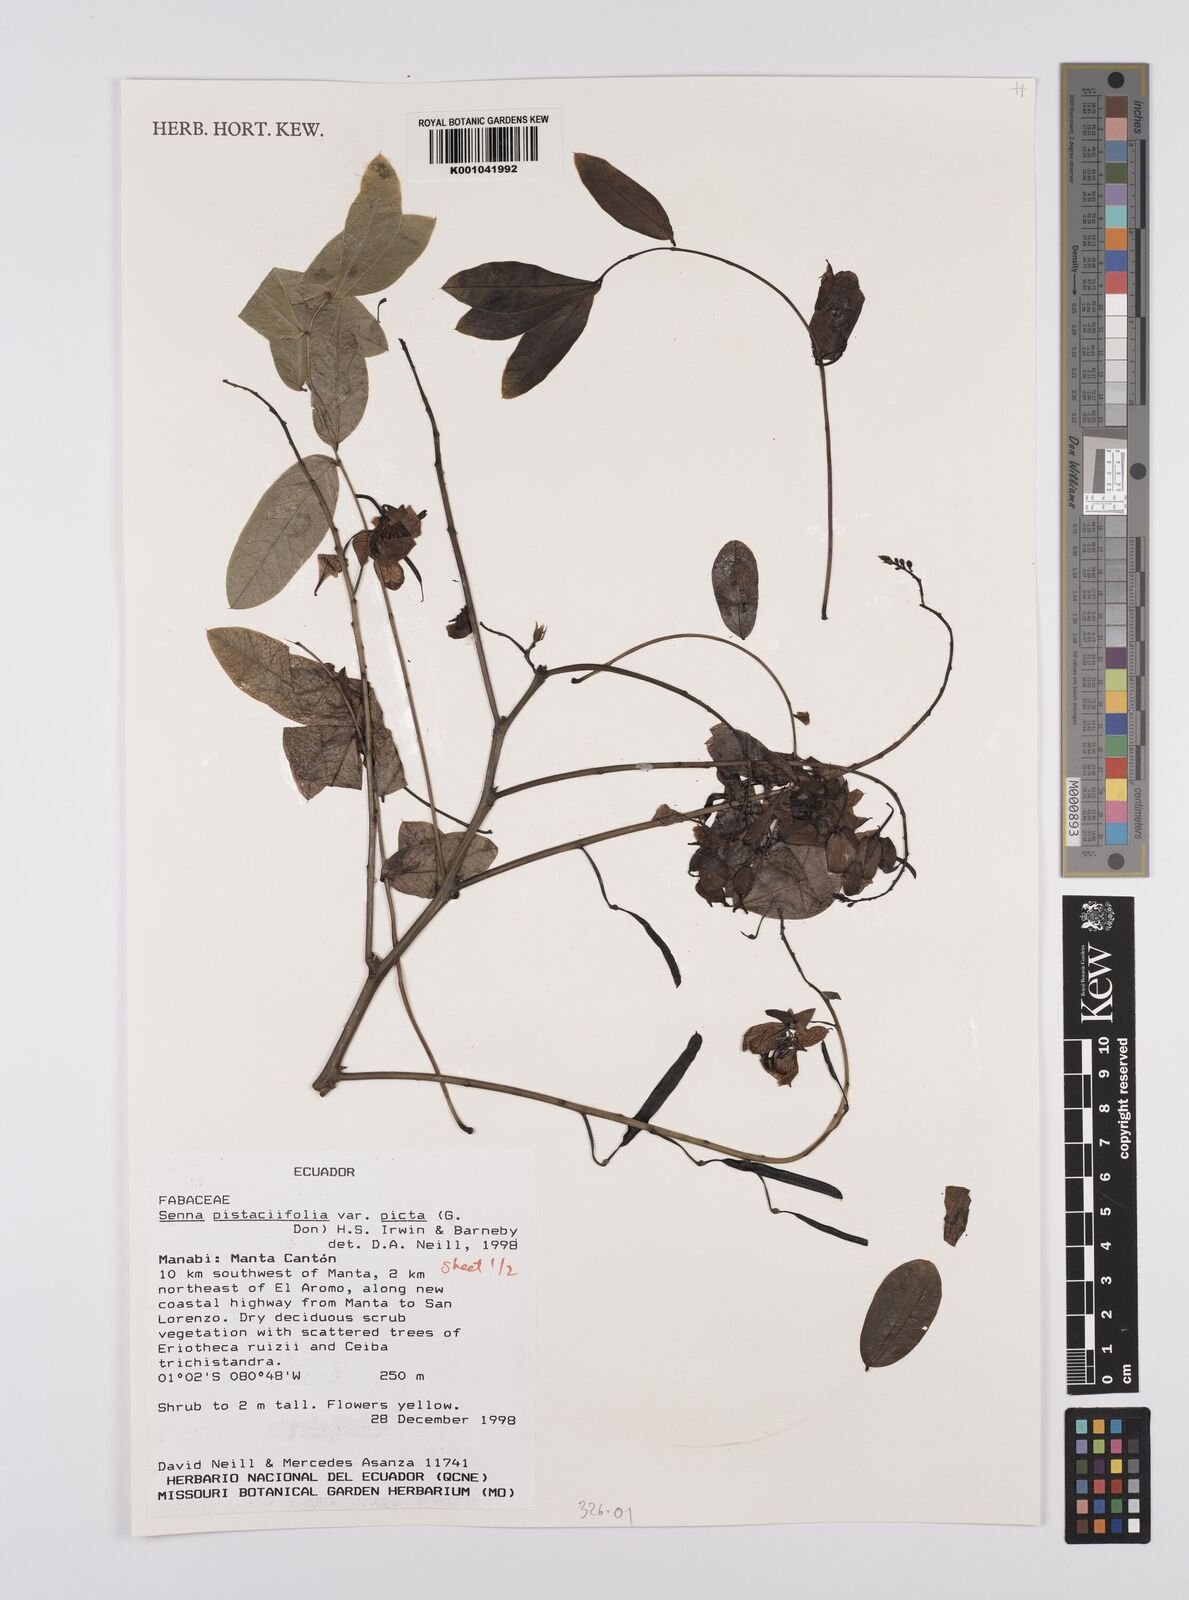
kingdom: Plantae
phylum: Tracheophyta
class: Magnoliopsida
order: Fabales
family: Fabaceae
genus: Senna
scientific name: Senna pistaciifolia
